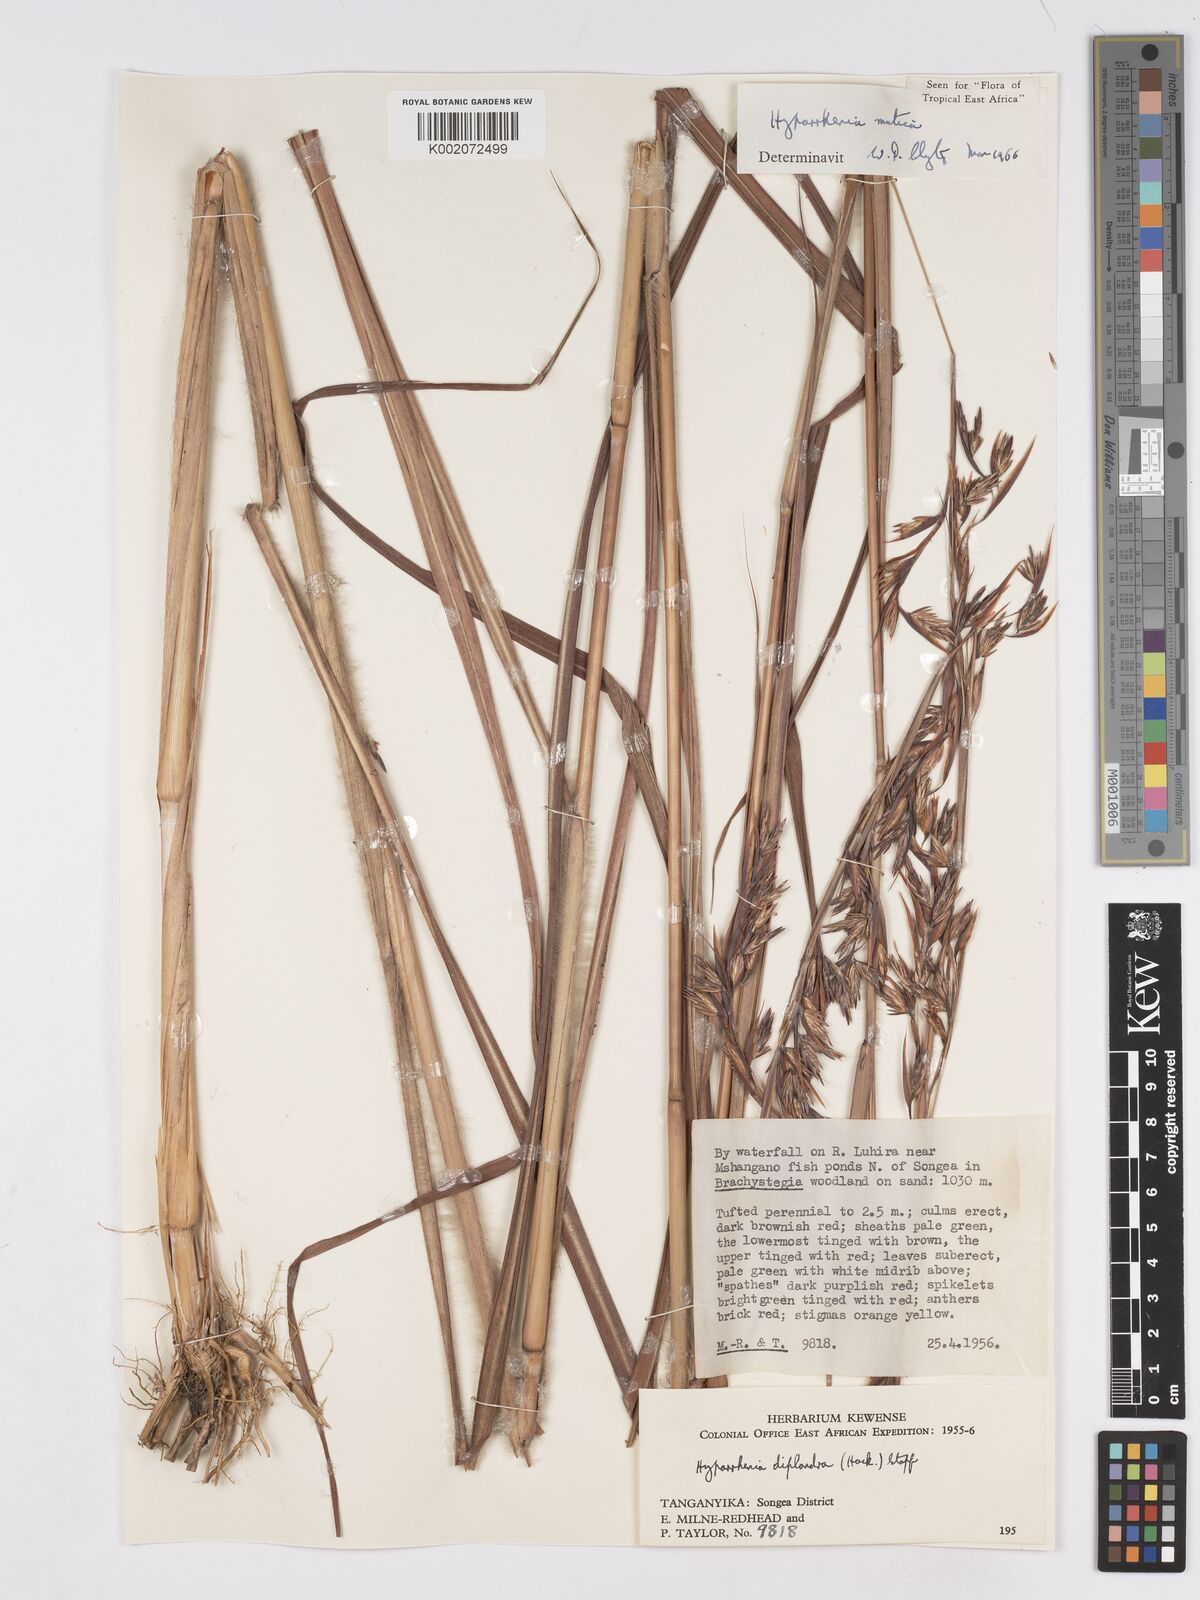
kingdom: Plantae
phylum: Tracheophyta
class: Liliopsida
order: Poales
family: Poaceae
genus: Hyparrhenia
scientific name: Hyparrhenia diplandra
